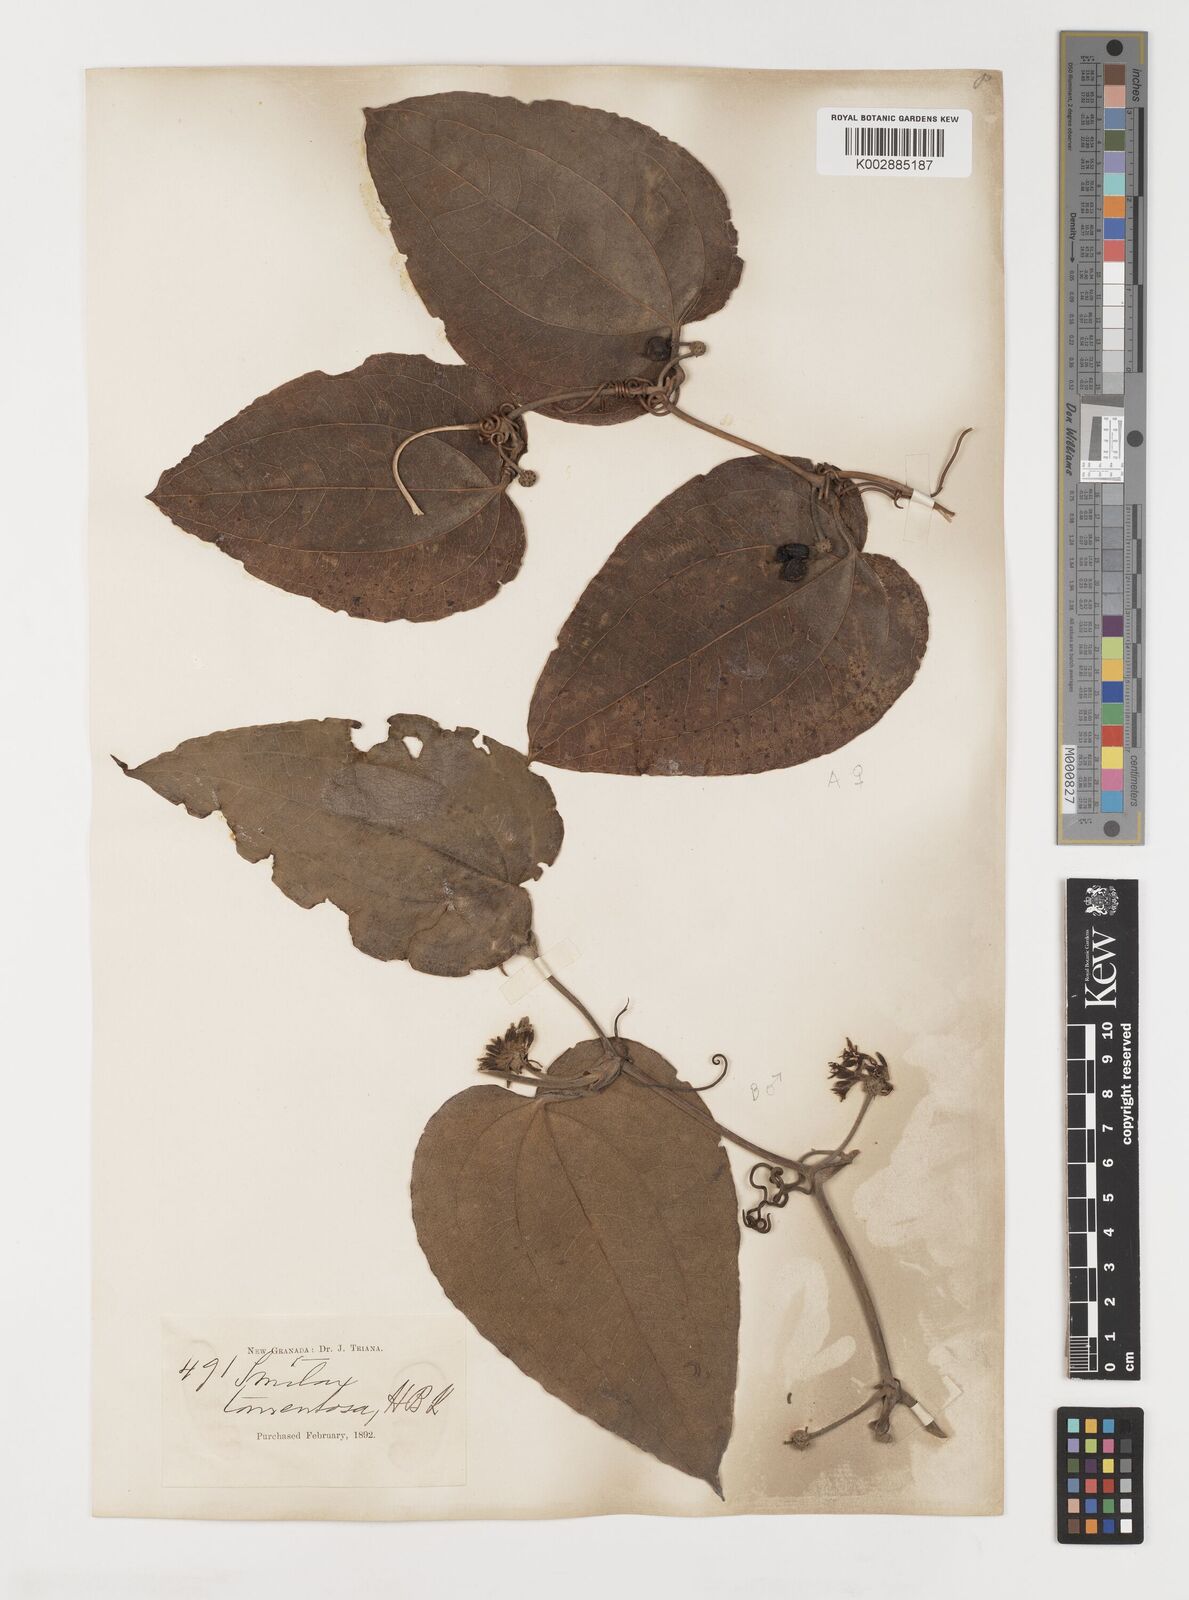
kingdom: Plantae
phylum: Tracheophyta
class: Liliopsida
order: Liliales
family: Smilacaceae
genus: Smilax
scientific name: Smilax tomentosa
